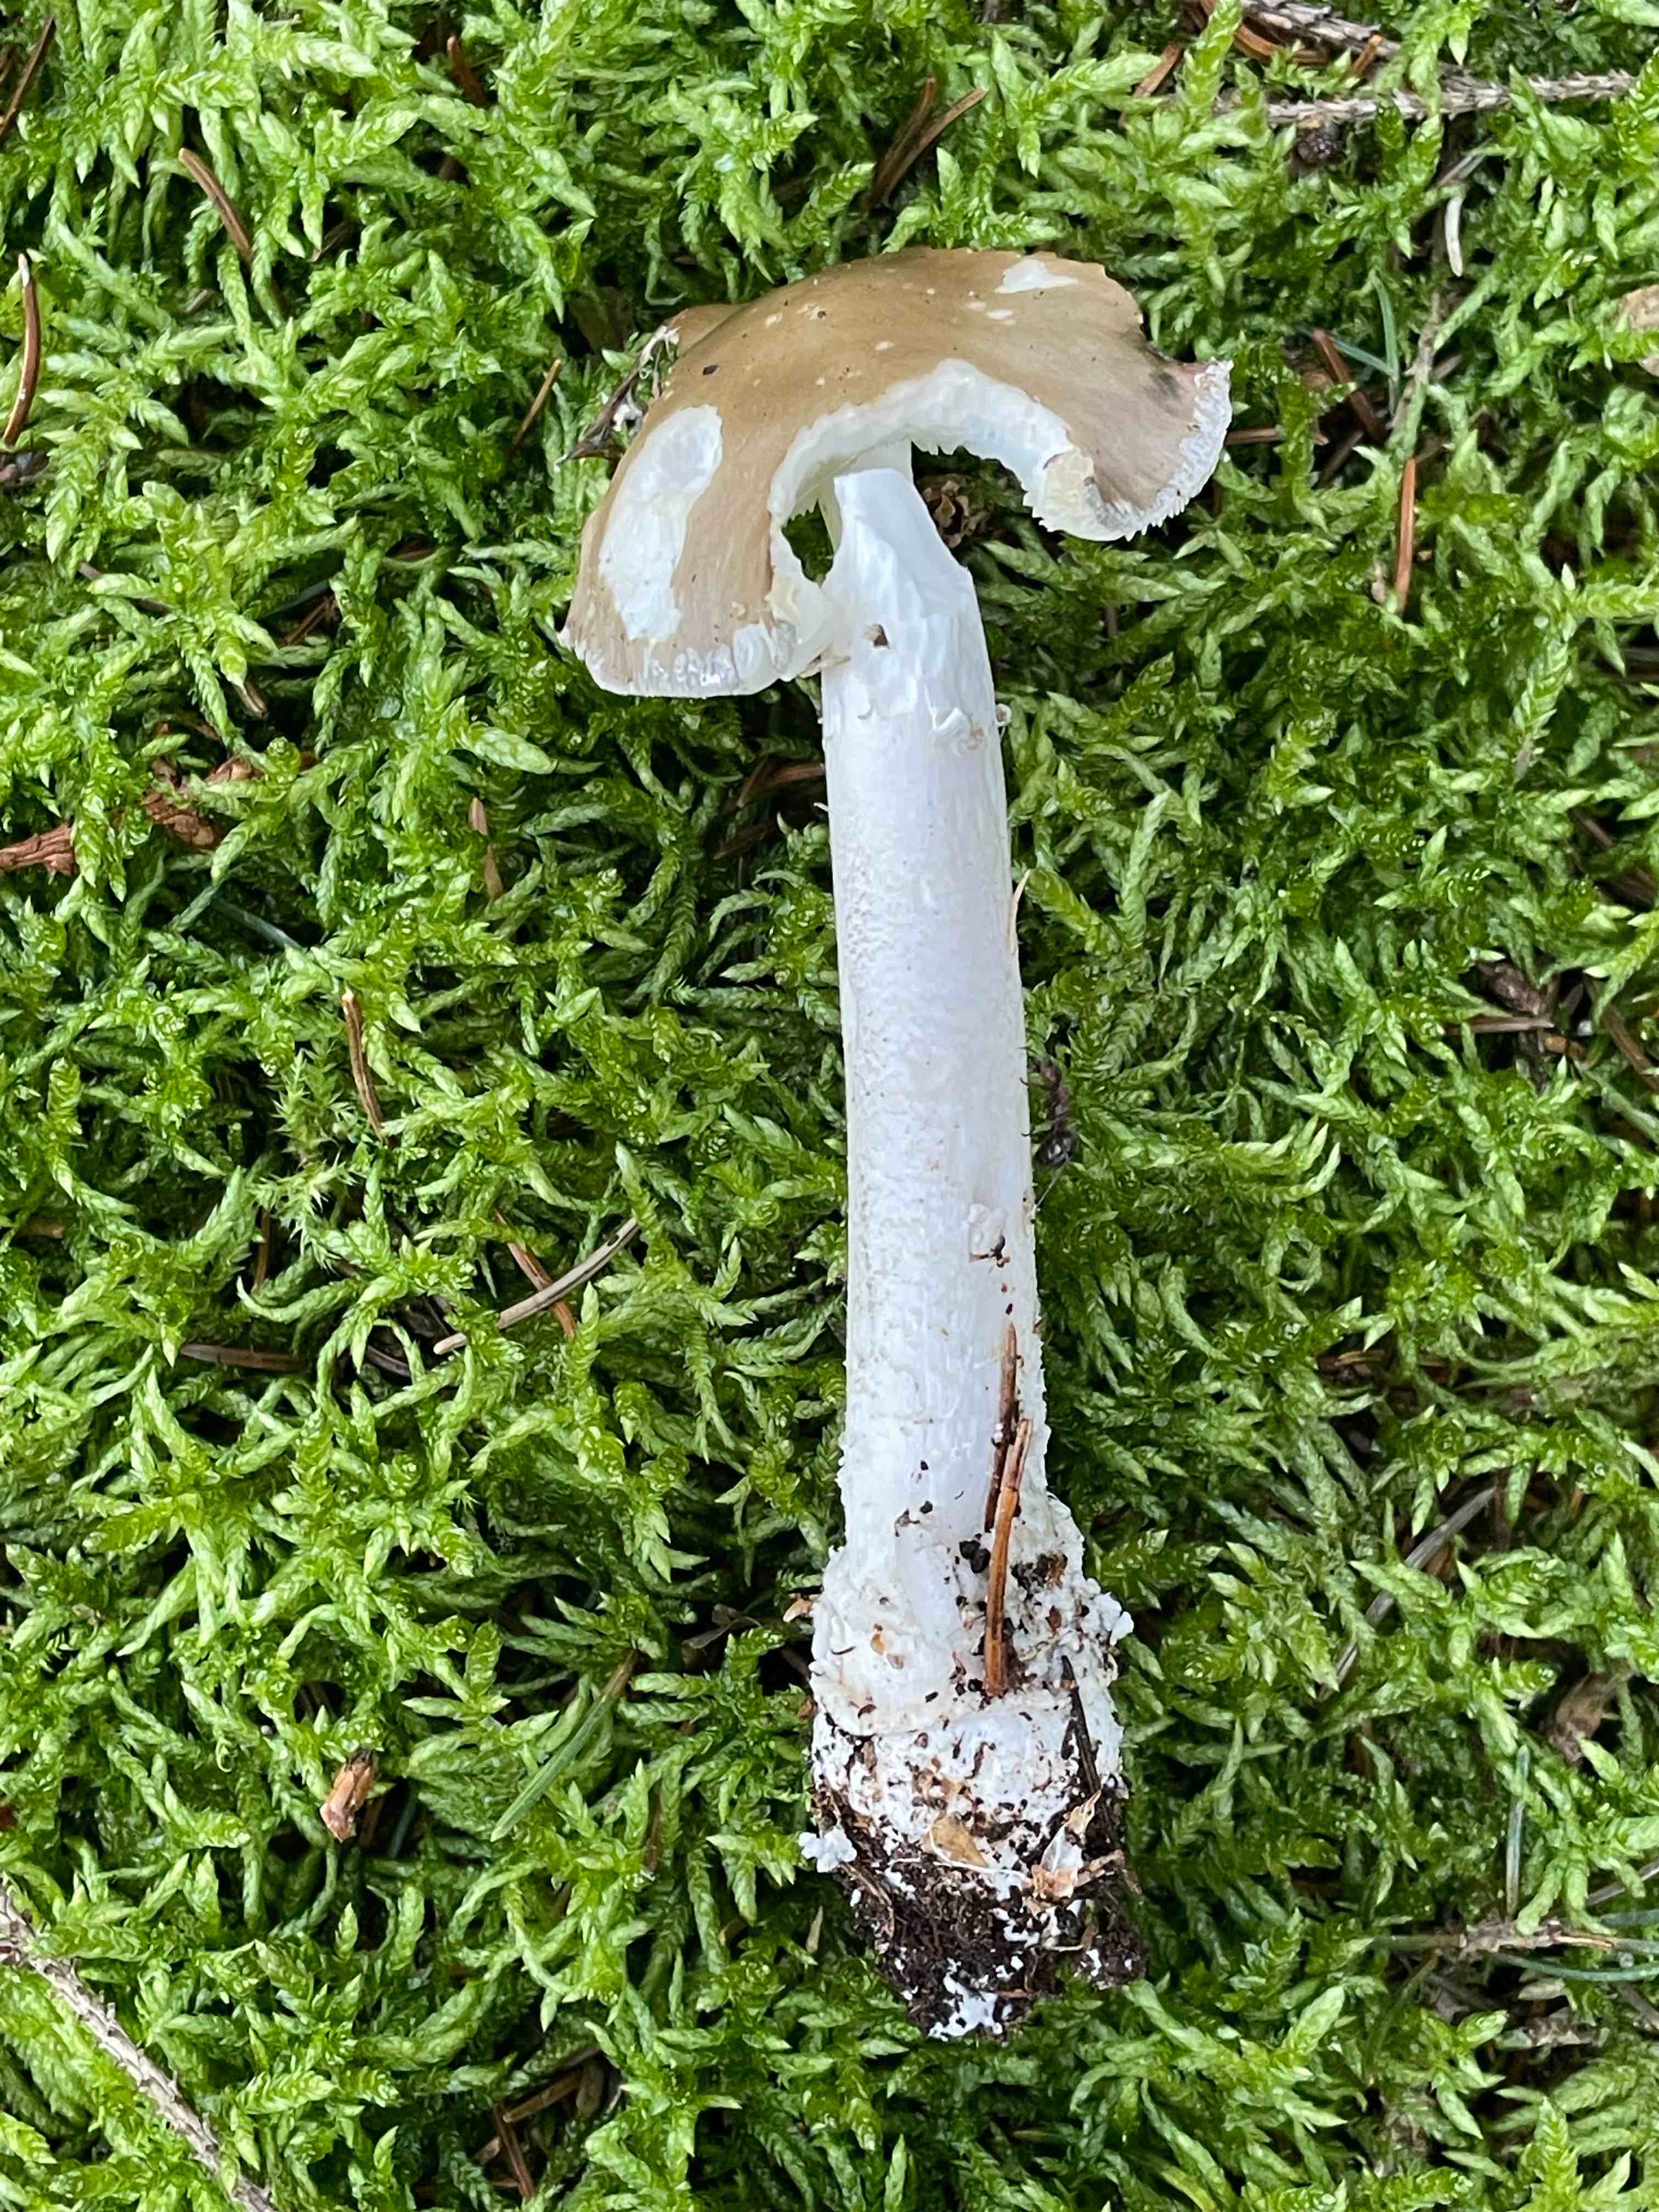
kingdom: Fungi
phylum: Basidiomycota
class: Agaricomycetes
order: Agaricales
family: Amanitaceae
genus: Amanita
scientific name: Amanita
